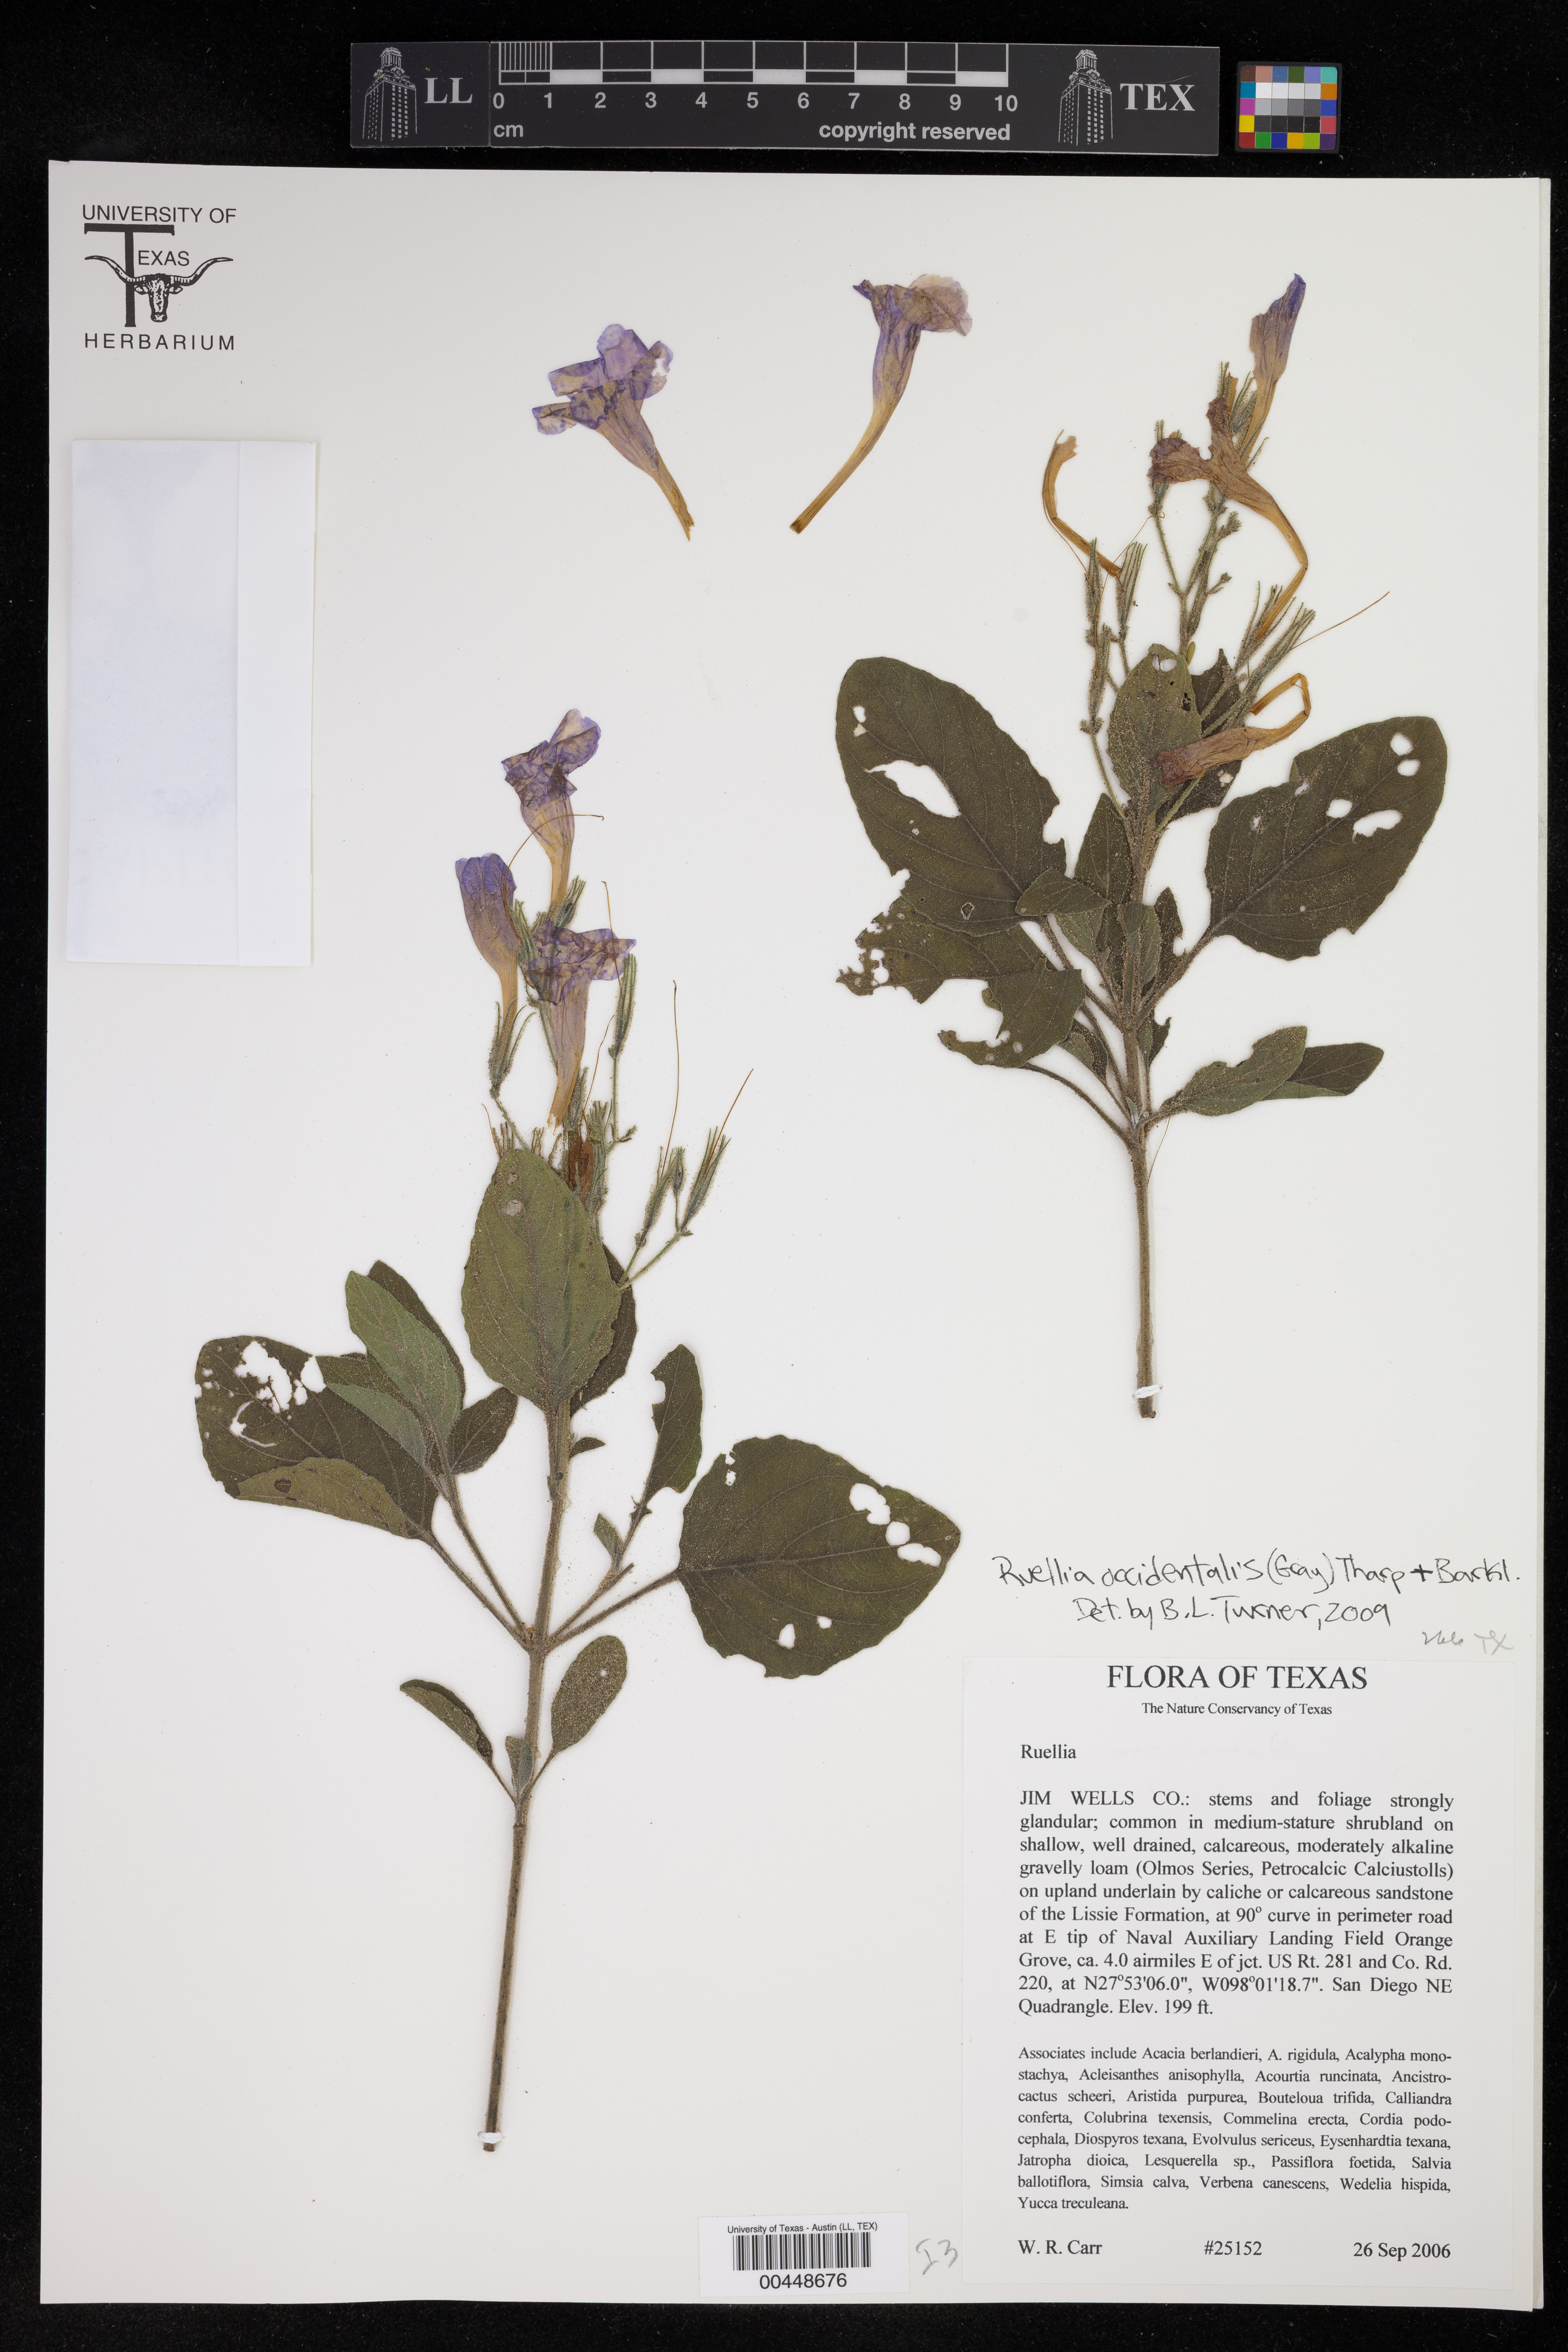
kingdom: Plantae
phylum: Tracheophyta
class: Magnoliopsida
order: Lamiales
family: Acanthaceae
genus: Ruellia
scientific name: Ruellia ciliatiflora
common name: Hairyflower wild petunia
